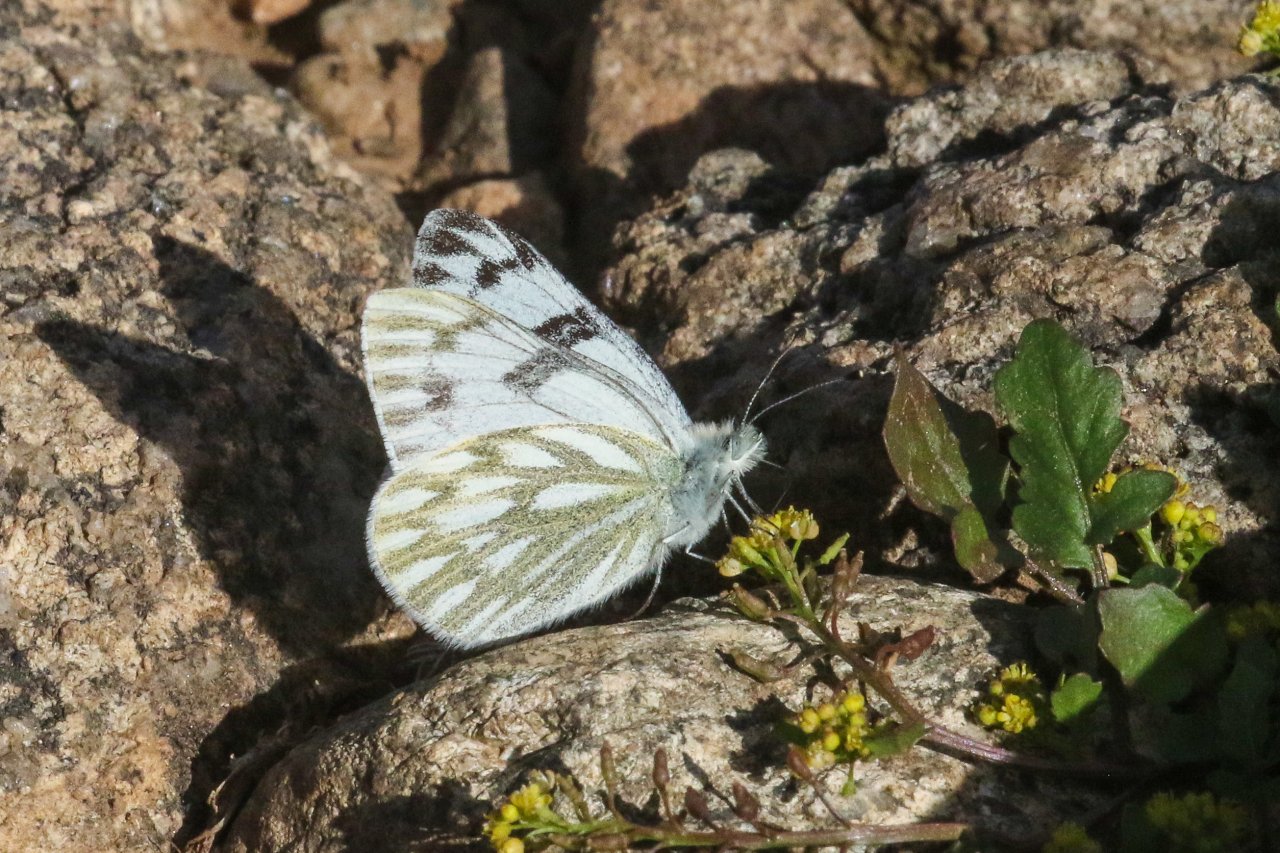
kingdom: Animalia
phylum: Arthropoda
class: Insecta
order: Lepidoptera
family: Pieridae
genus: Pontia
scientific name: Pontia occidentalis
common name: Western White
